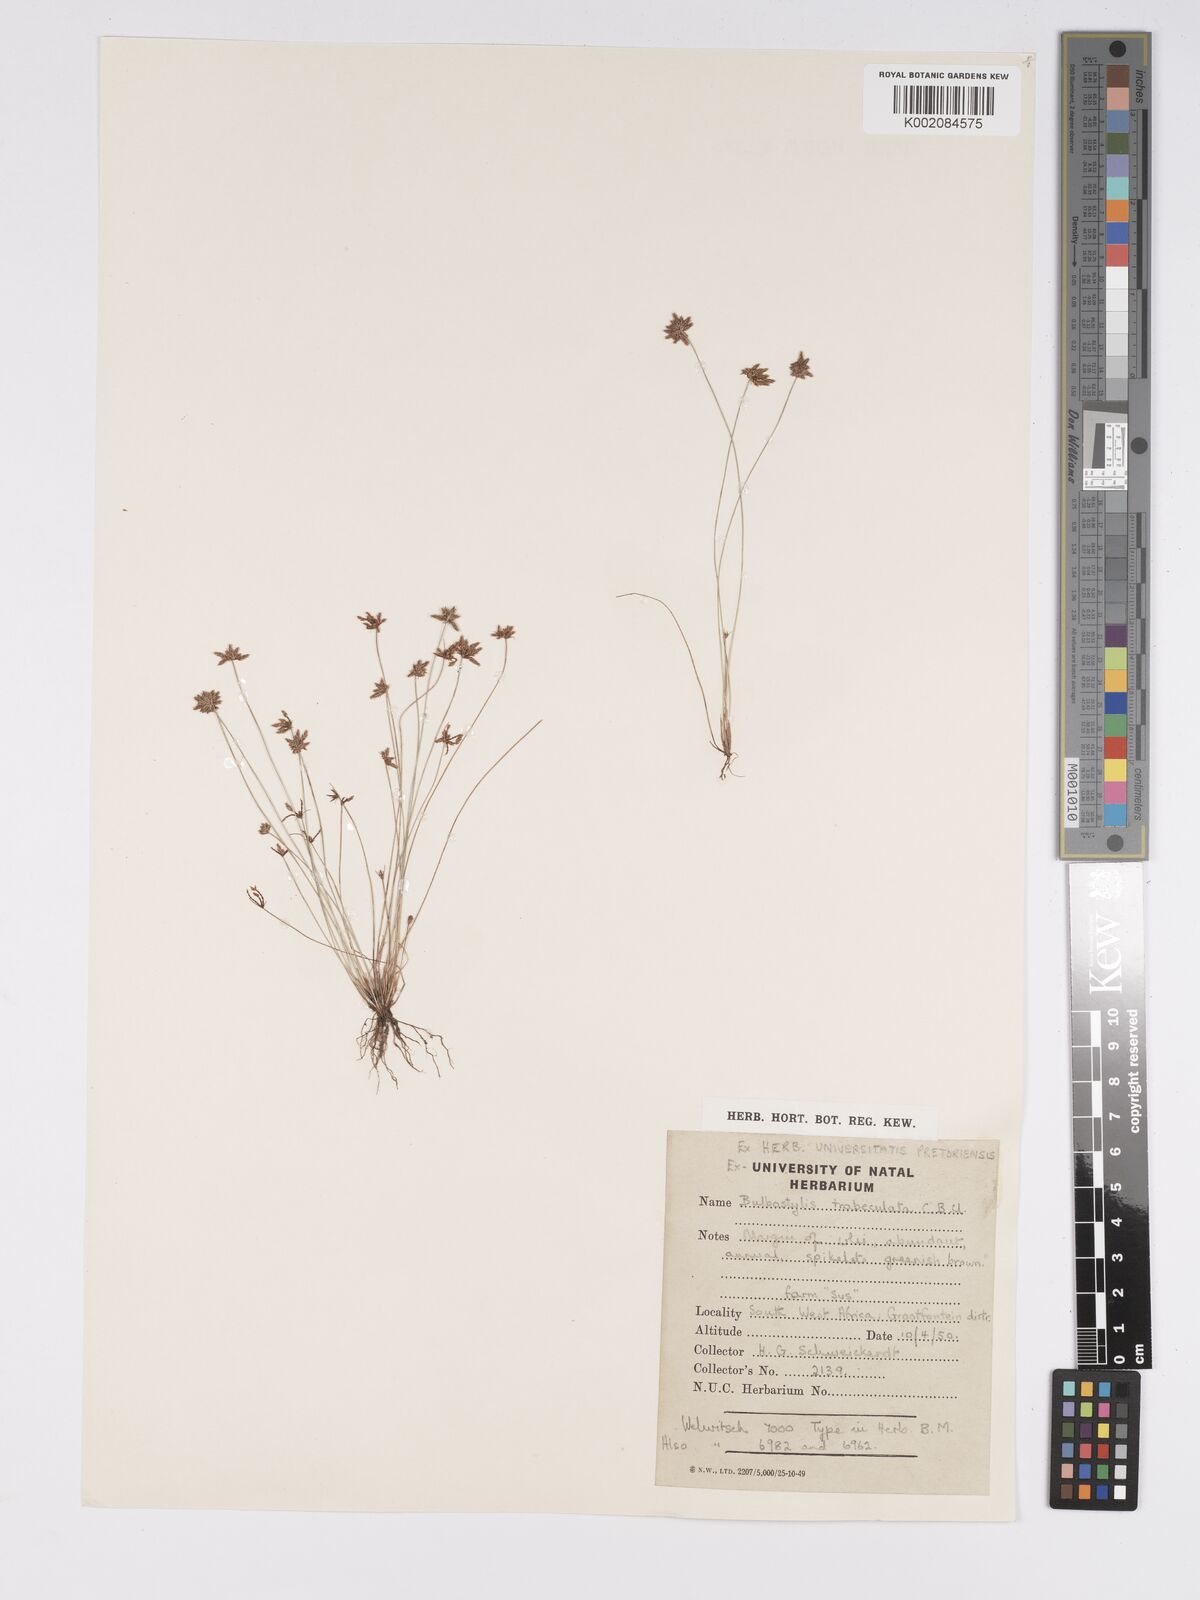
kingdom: Plantae
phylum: Tracheophyta
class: Liliopsida
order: Poales
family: Cyperaceae
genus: Bulbostylis
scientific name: Bulbostylis trabeculata
